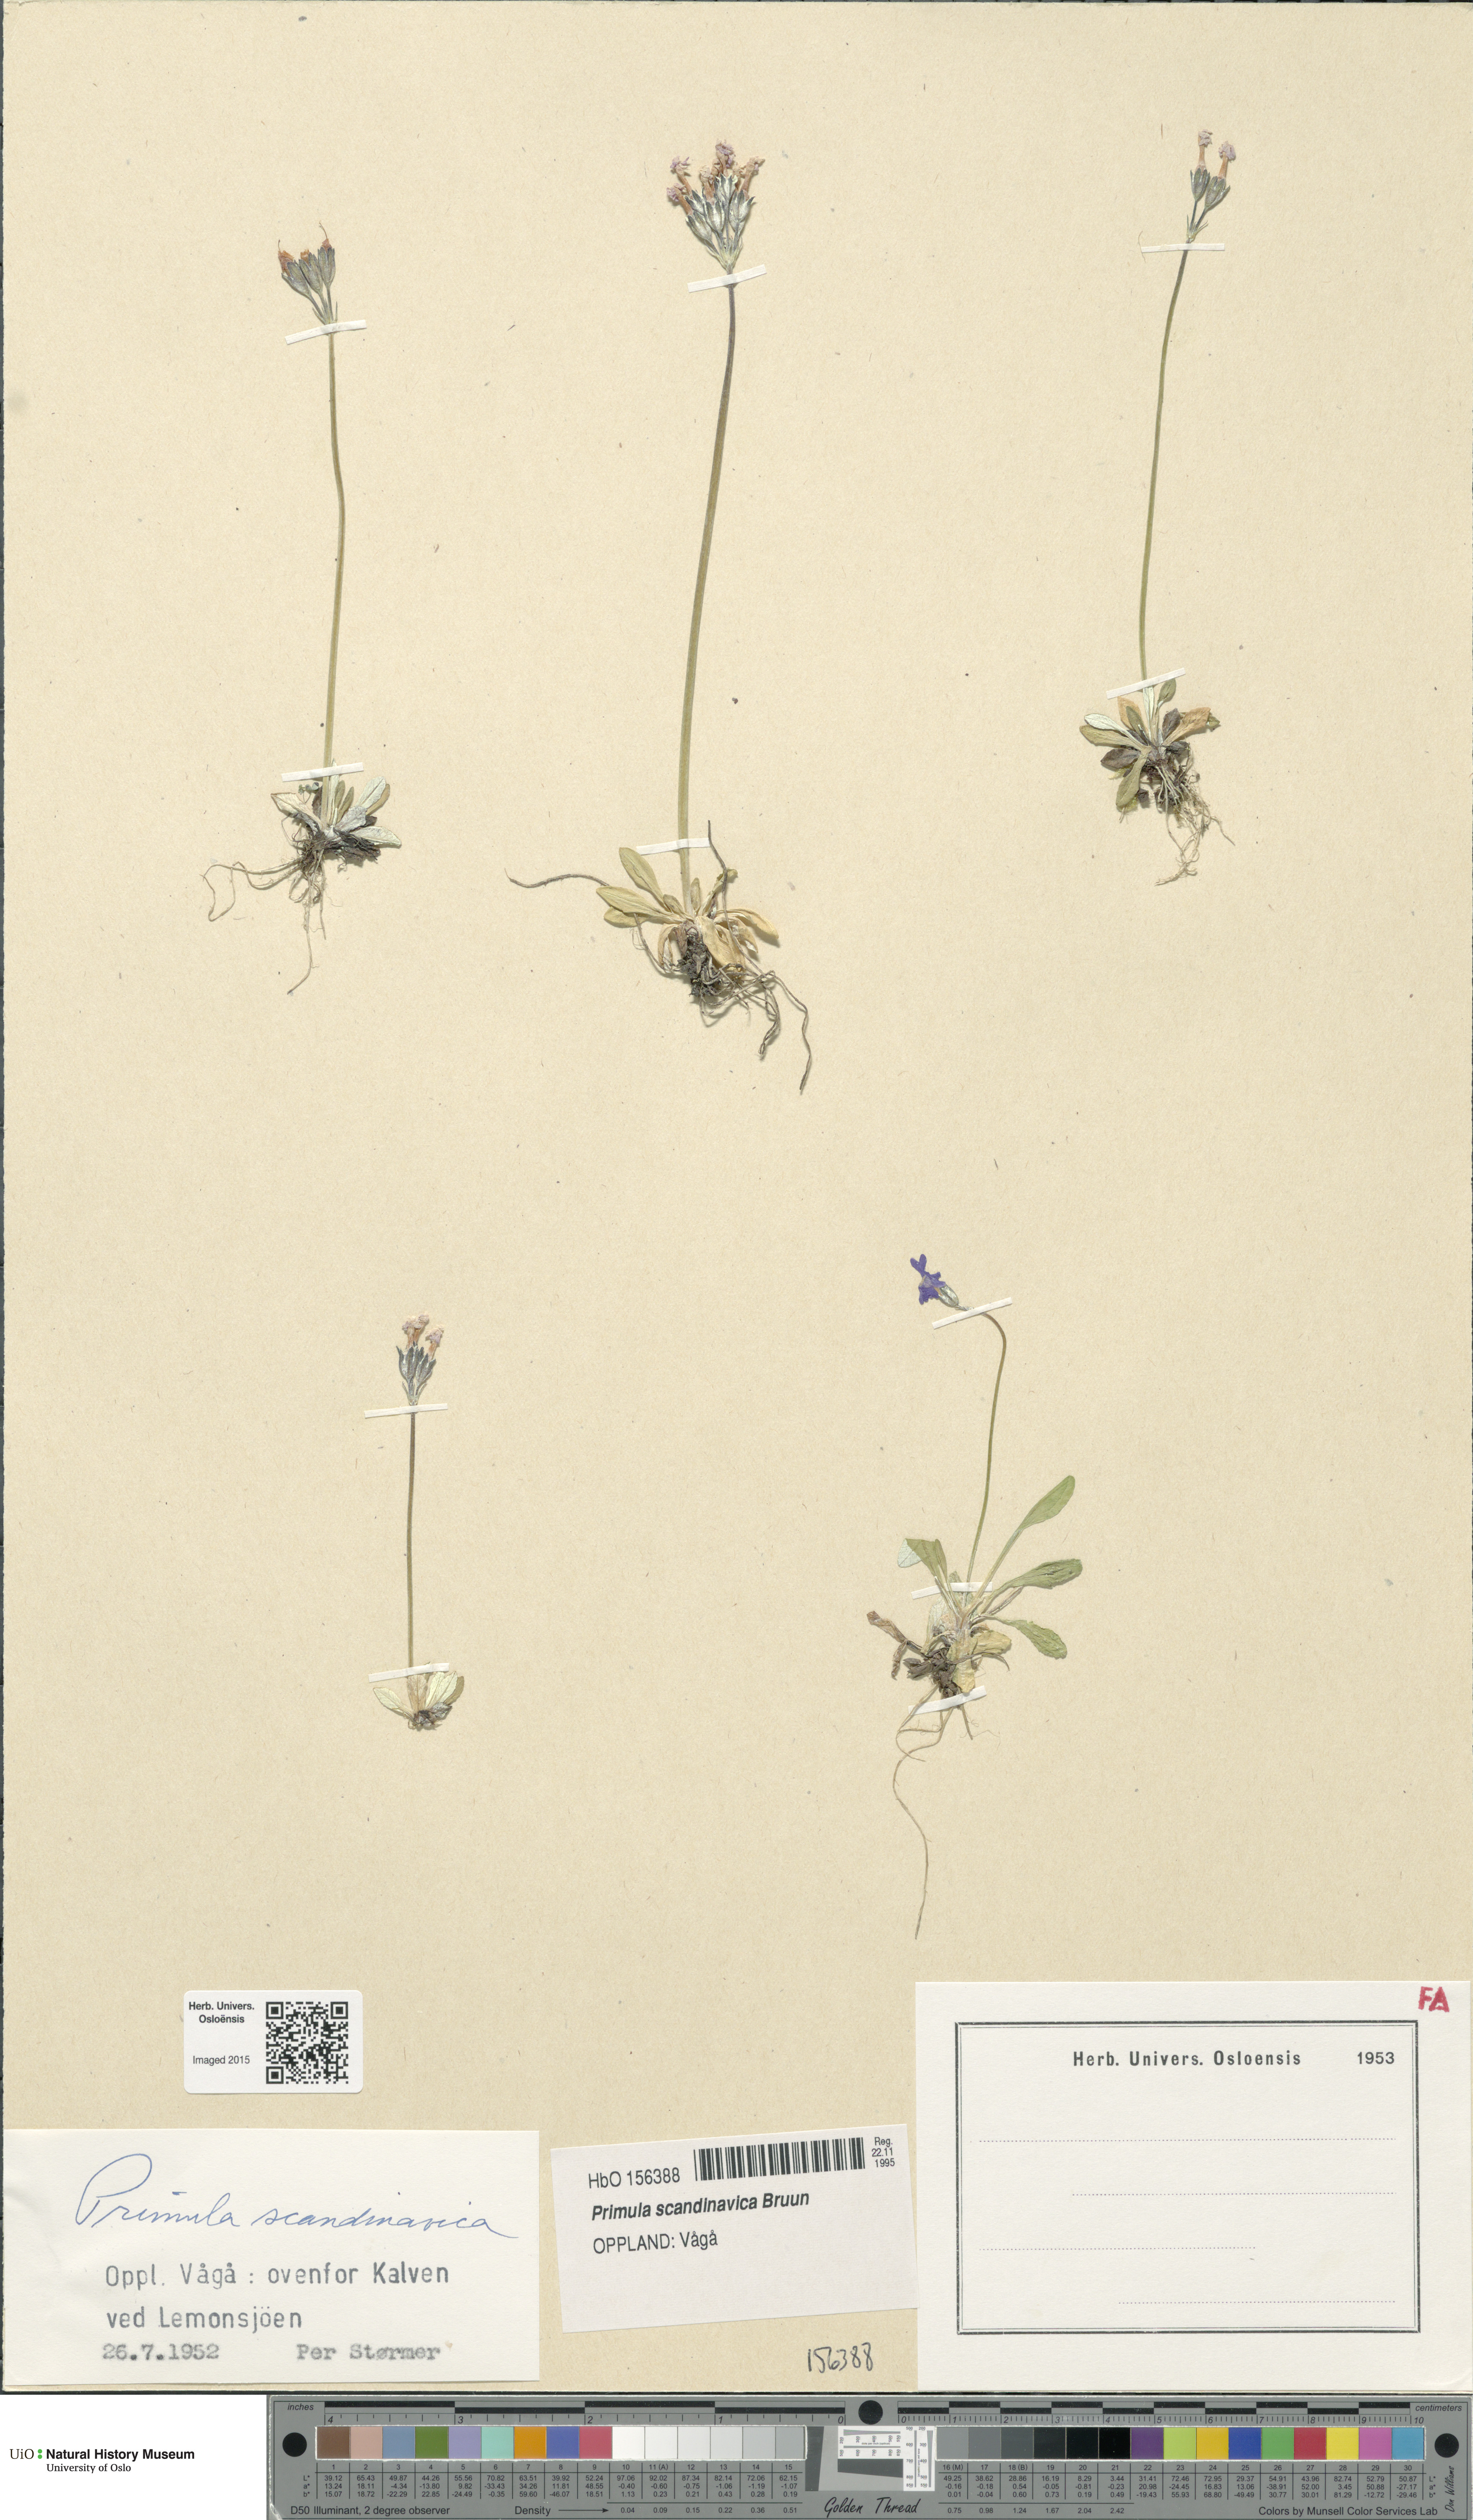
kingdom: Plantae
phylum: Tracheophyta
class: Magnoliopsida
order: Ericales
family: Primulaceae
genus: Primula
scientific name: Primula scandinavica
